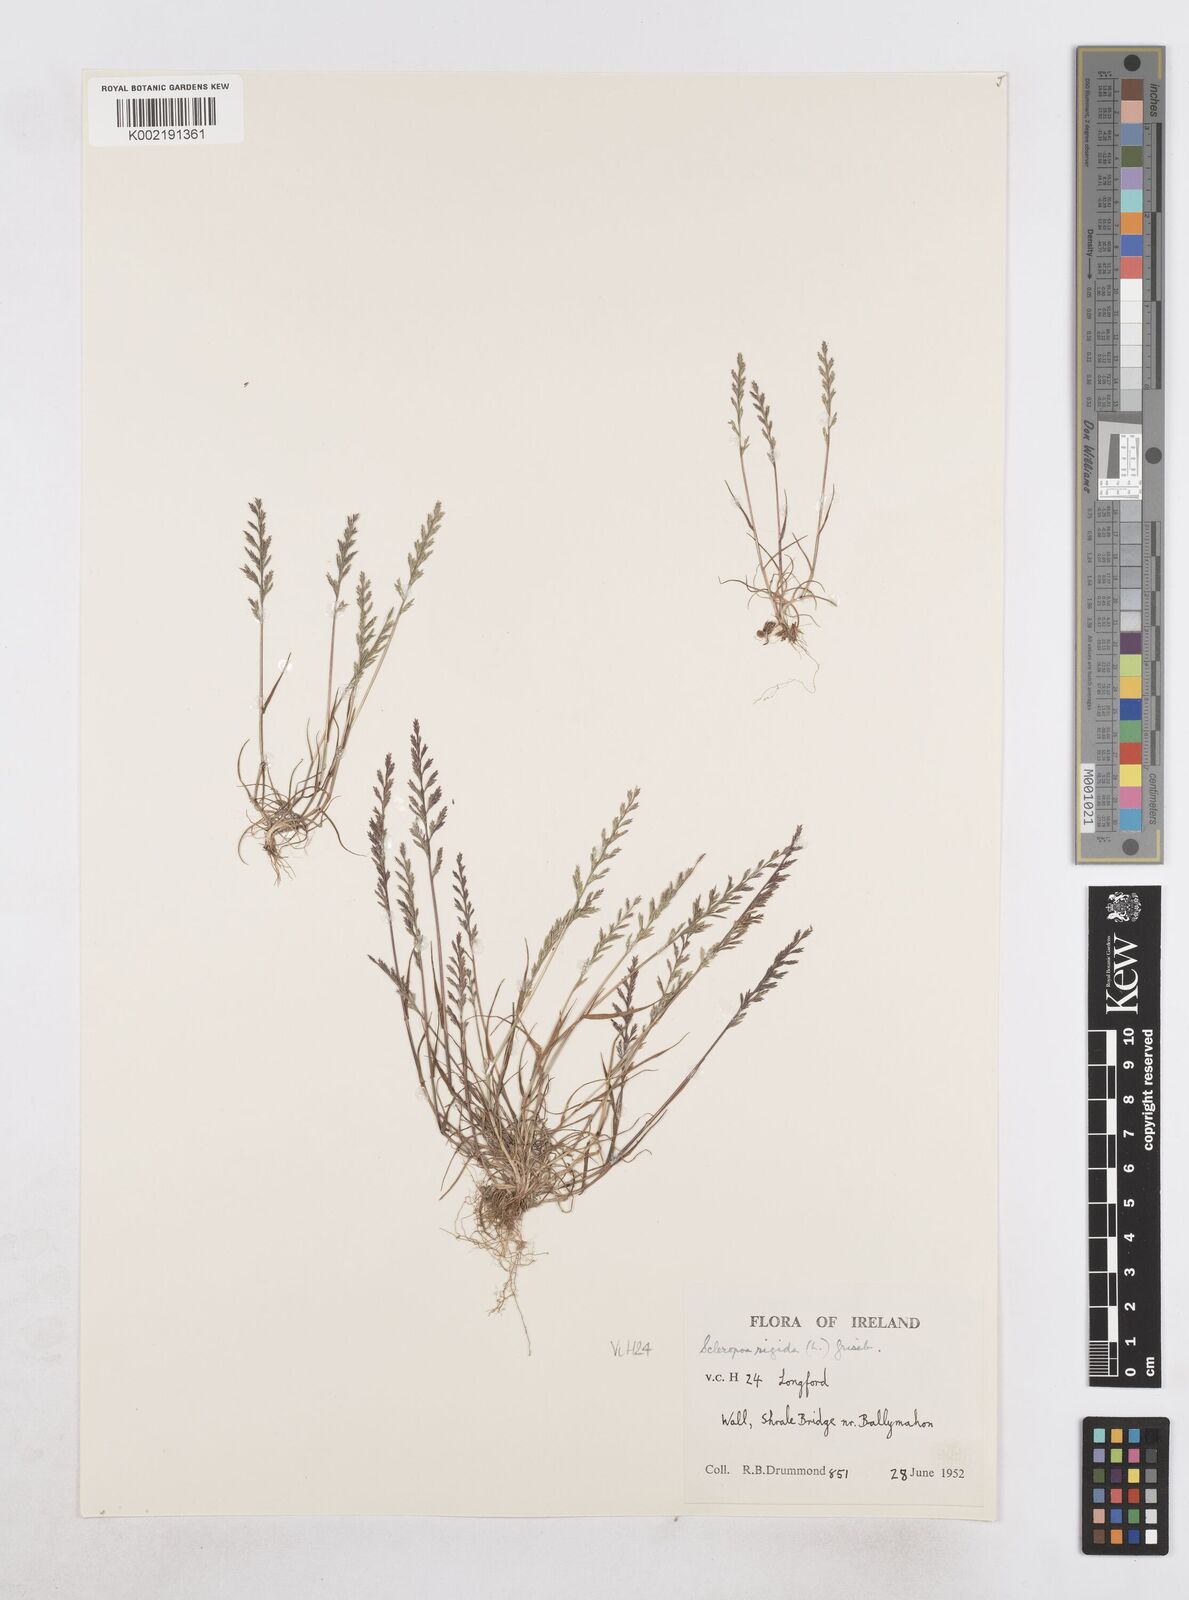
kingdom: Plantae
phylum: Tracheophyta
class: Liliopsida
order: Poales
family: Poaceae
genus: Catapodium
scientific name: Catapodium rigidum
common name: Fern-grass
